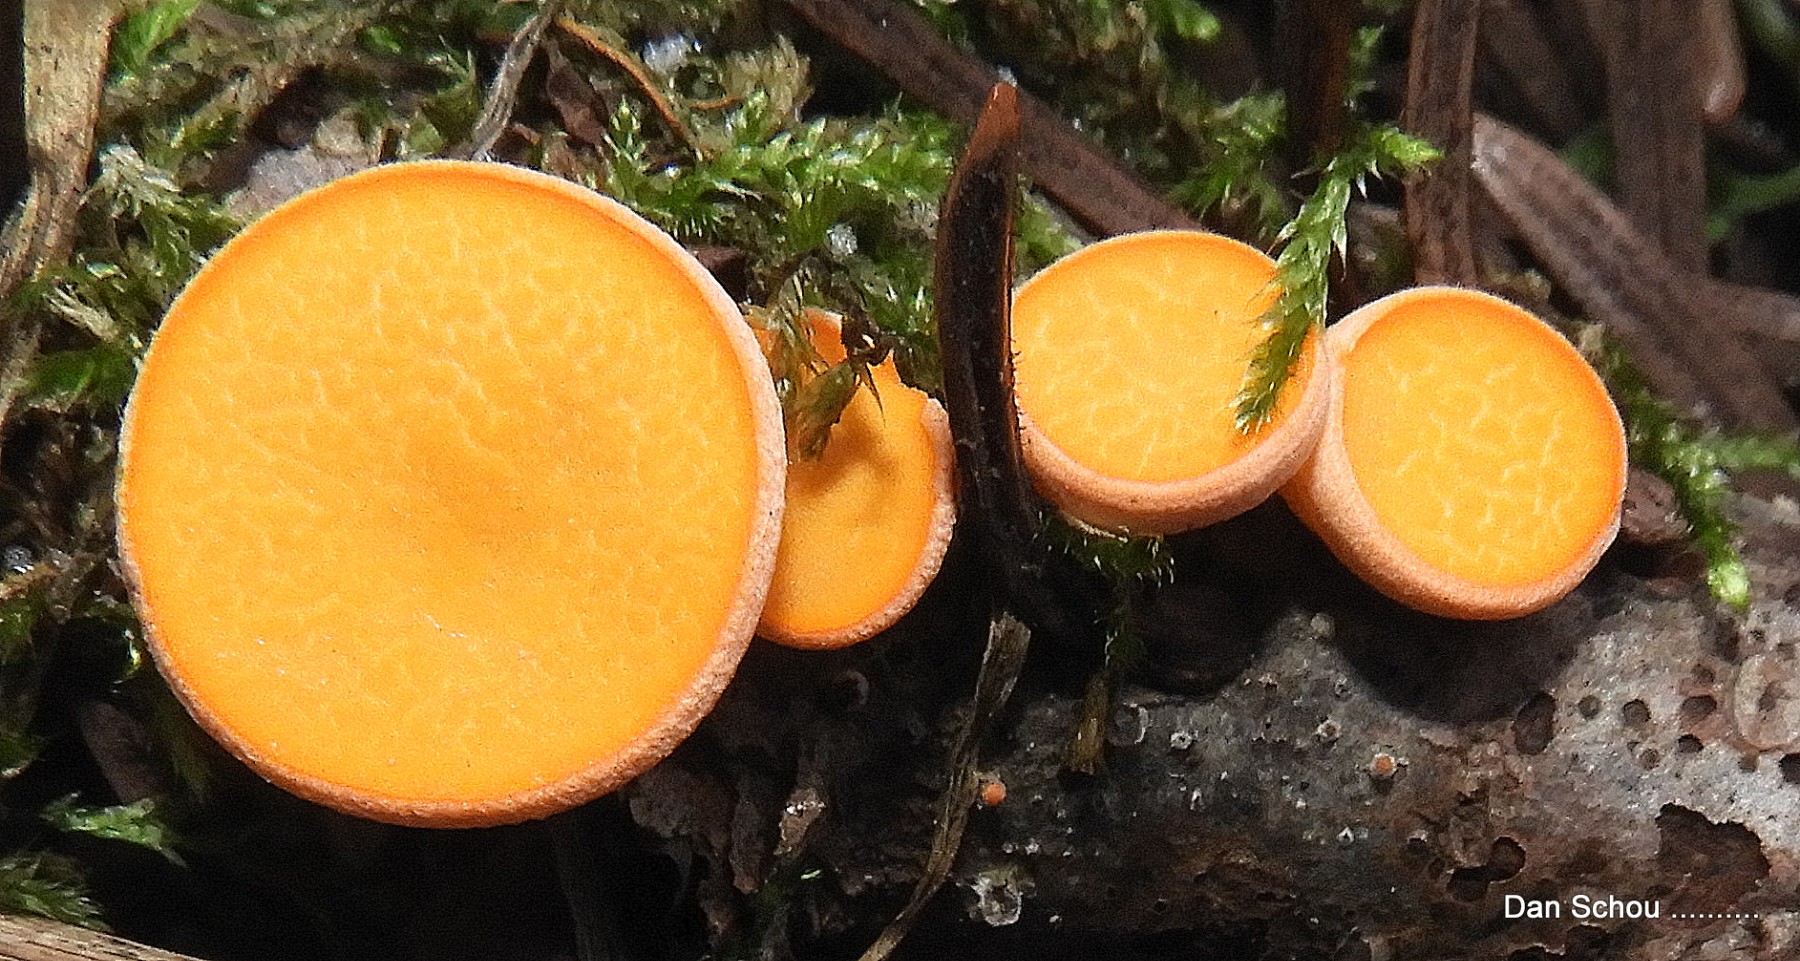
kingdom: Fungi
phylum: Ascomycota
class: Pezizomycetes
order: Pezizales
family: Sarcoscyphaceae
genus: Pithya
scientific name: Pithya vulgaris
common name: stor dukatbæger
